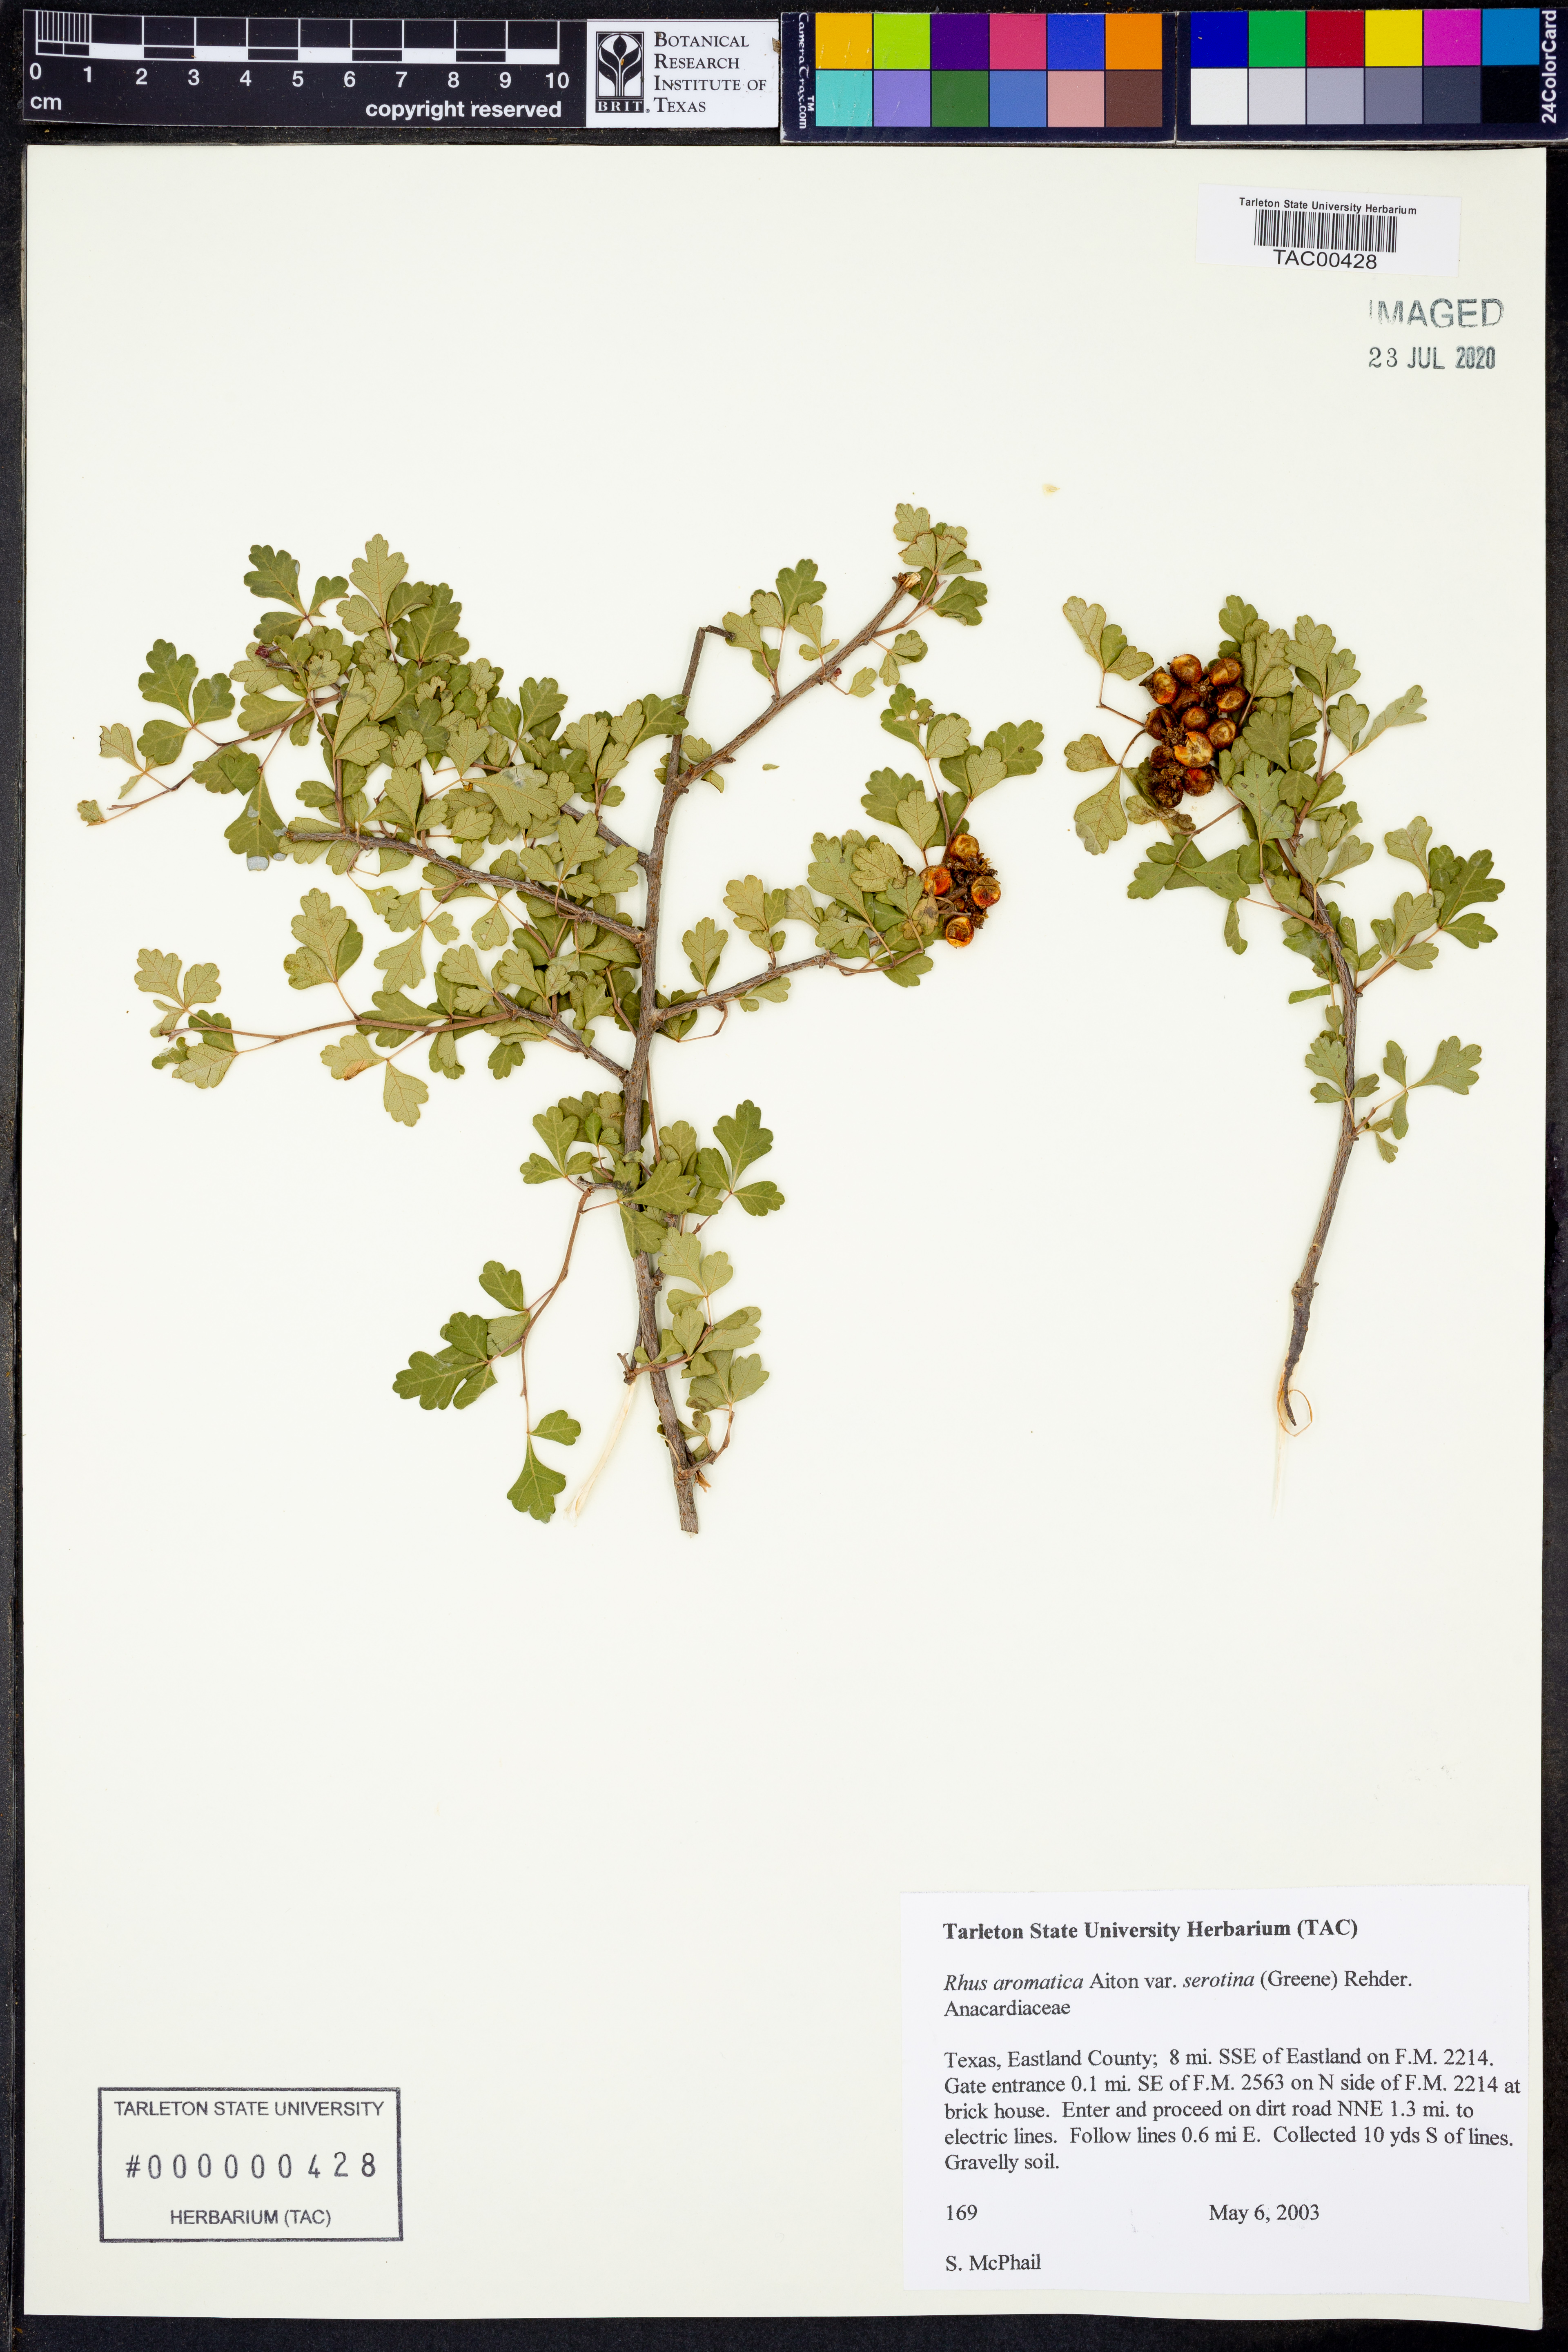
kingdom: Plantae
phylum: Tracheophyta
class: Magnoliopsida
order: Sapindales
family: Anacardiaceae
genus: Rhus
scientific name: Rhus aromatica
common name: Aromatic sumac
